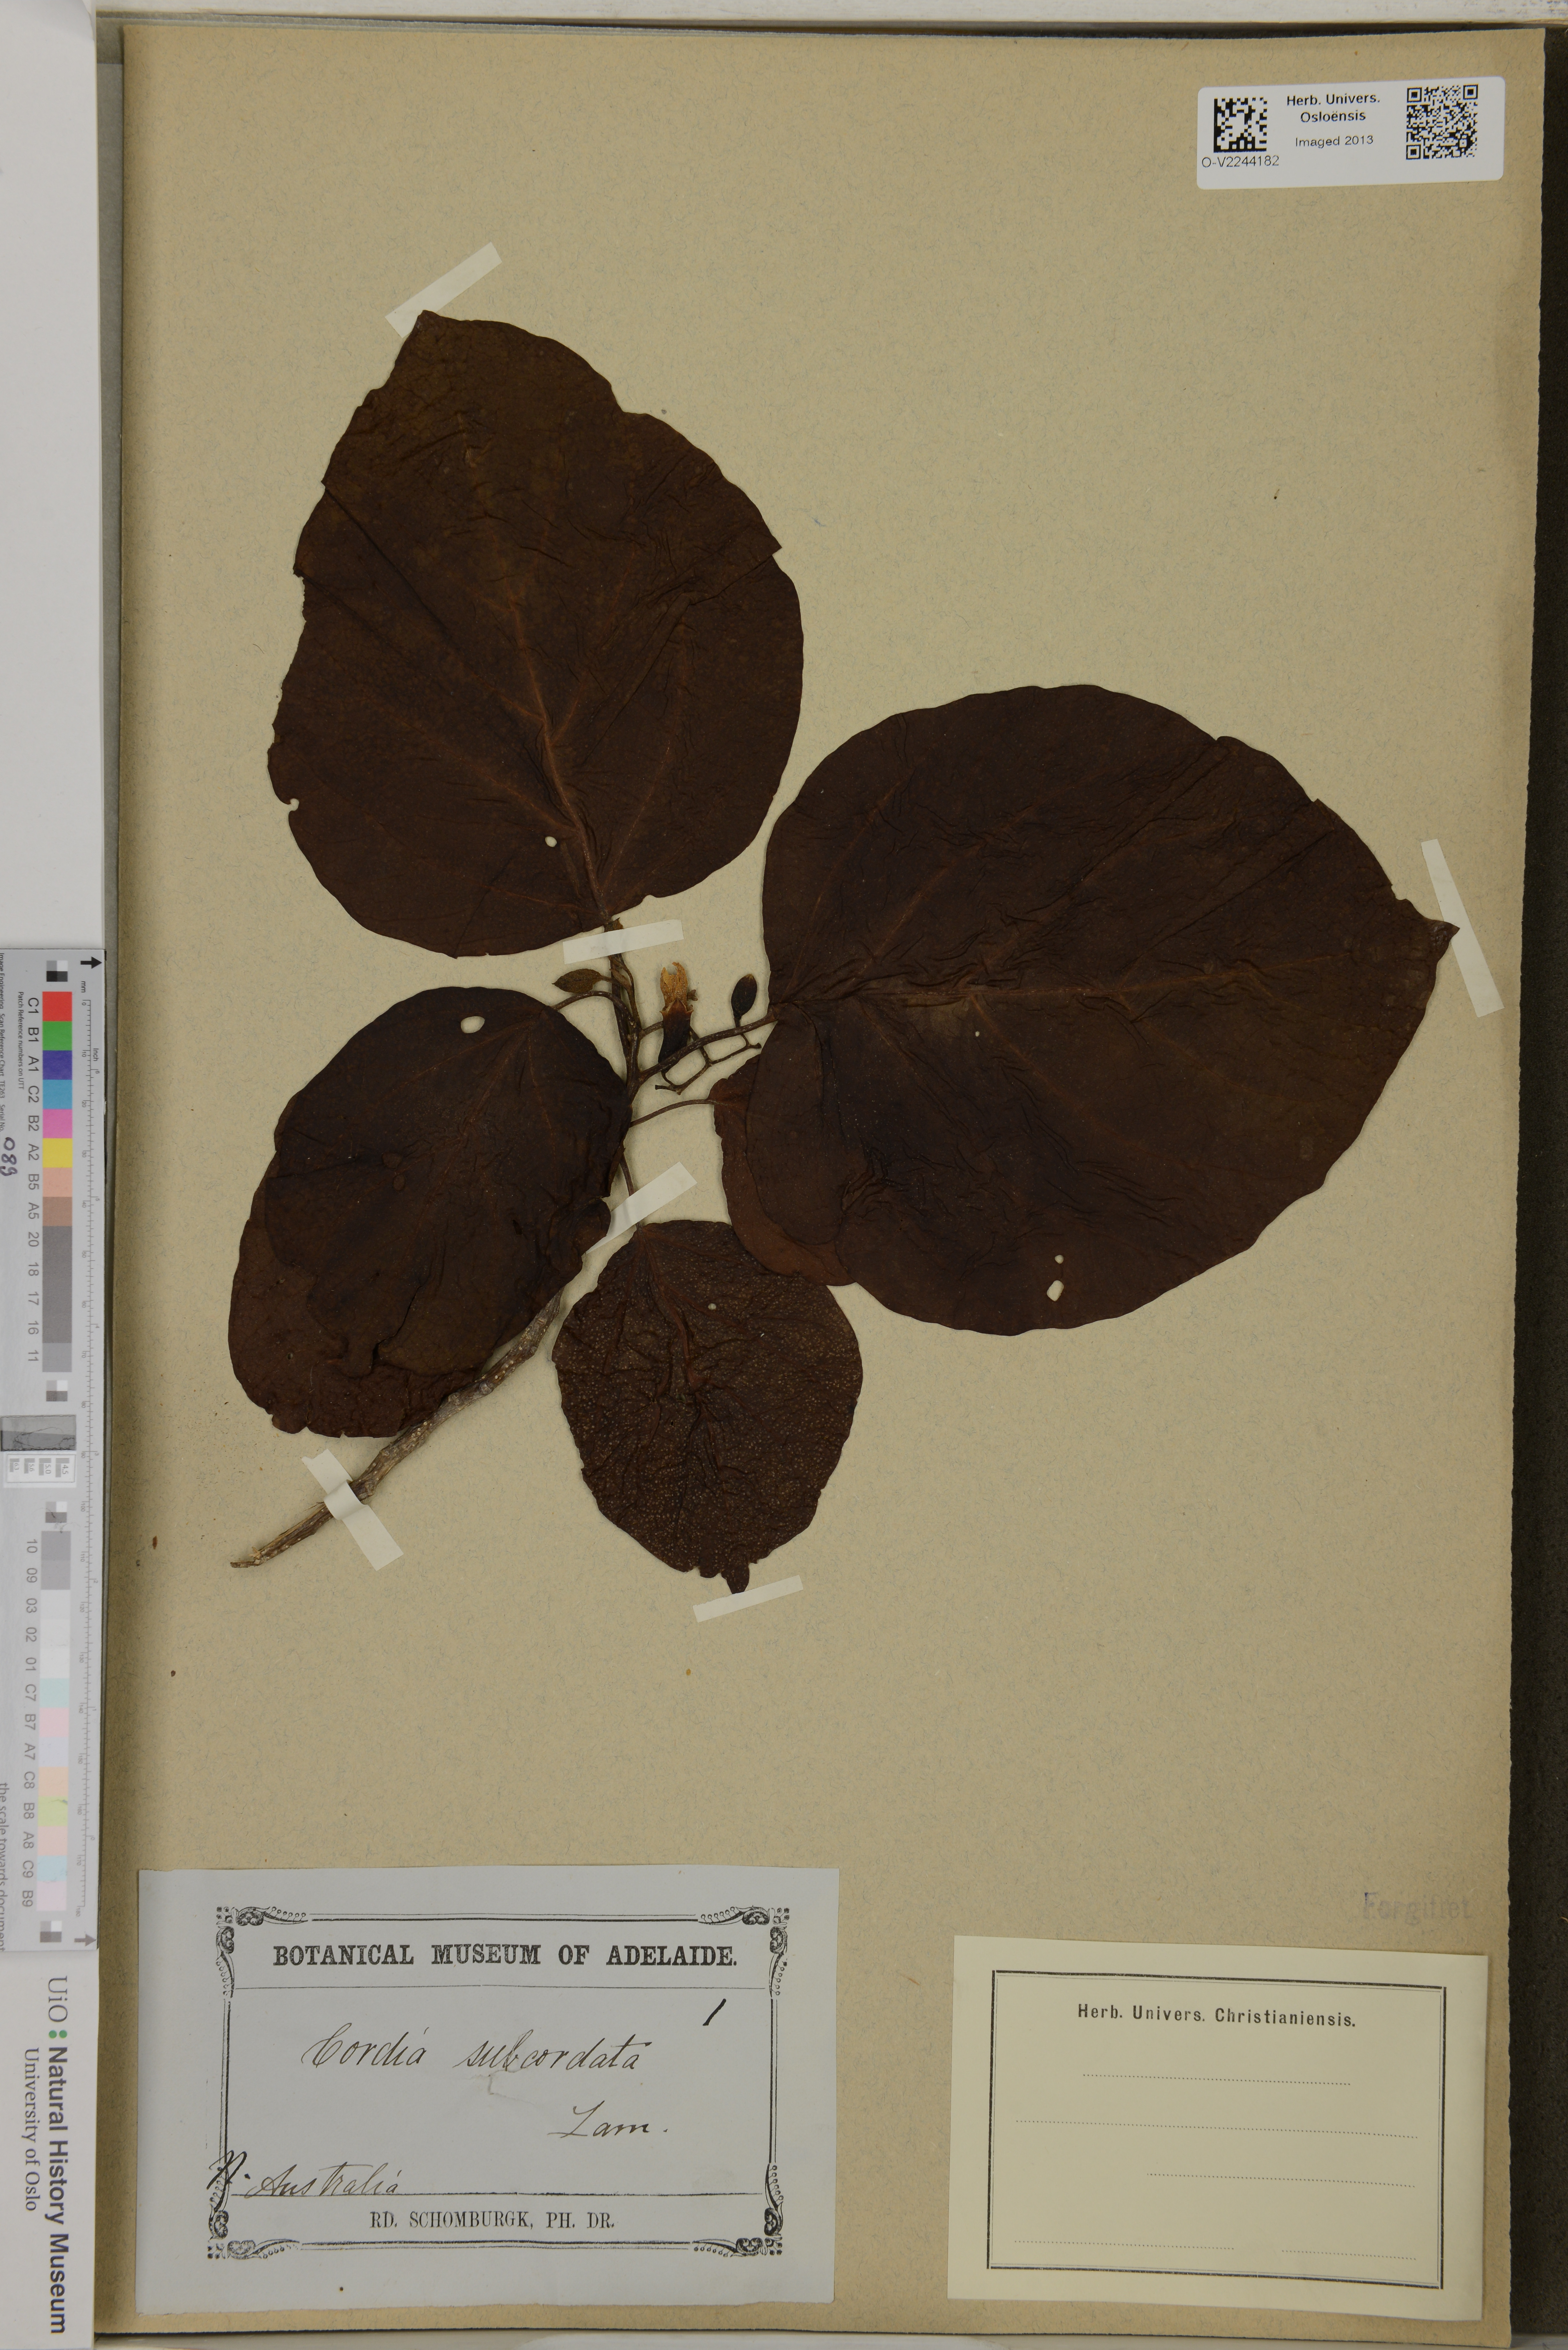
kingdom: Plantae
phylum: Tracheophyta
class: Magnoliopsida
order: Boraginales
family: Cordiaceae
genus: Cordia
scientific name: Cordia subcordata
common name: Mareer
